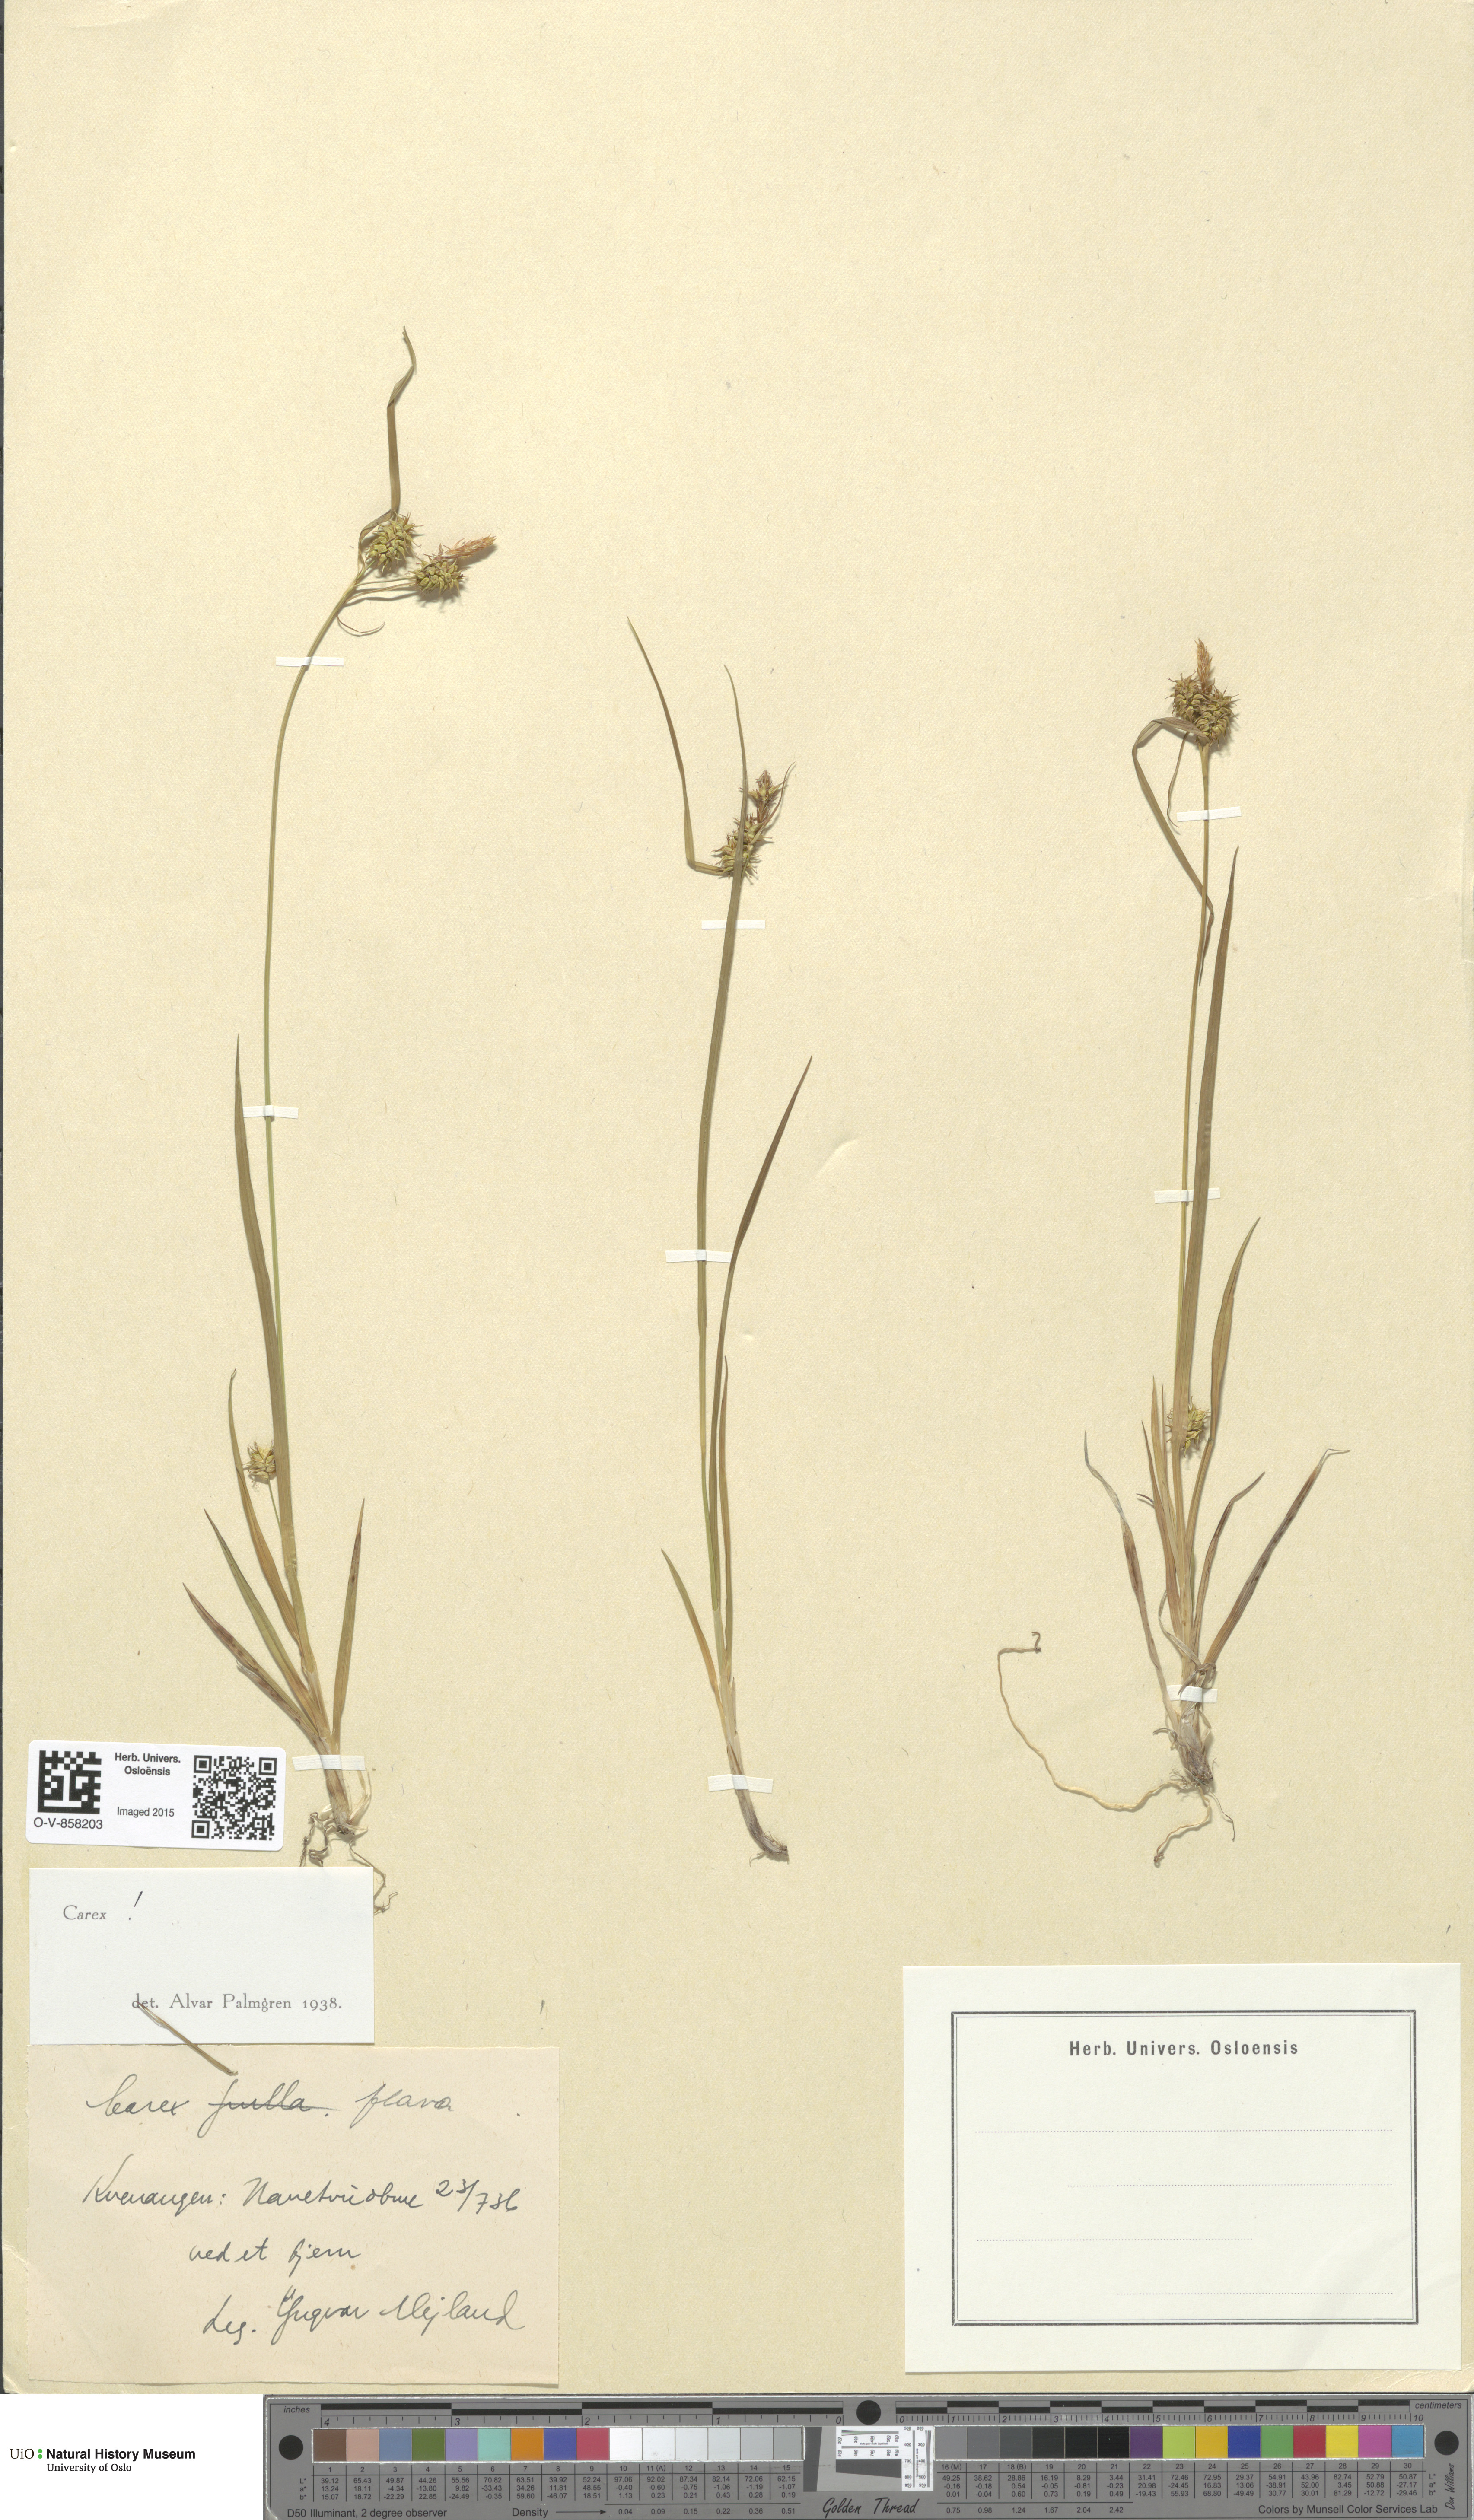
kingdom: Plantae
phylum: Tracheophyta
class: Liliopsida
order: Poales
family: Cyperaceae
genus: Carex
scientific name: Carex flava
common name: Large yellow-sedge
